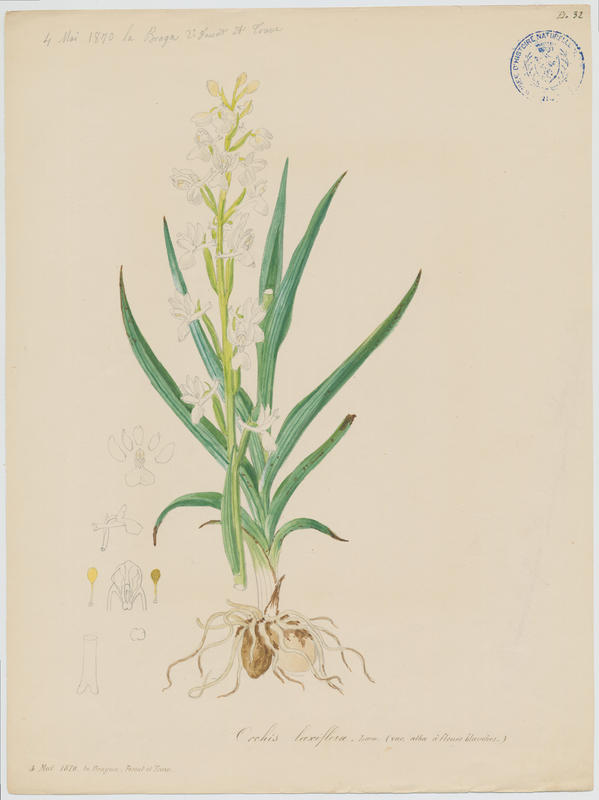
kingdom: Plantae
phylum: Tracheophyta
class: Liliopsida
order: Asparagales
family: Orchidaceae
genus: Anacamptis
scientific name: Anacamptis laxiflora
